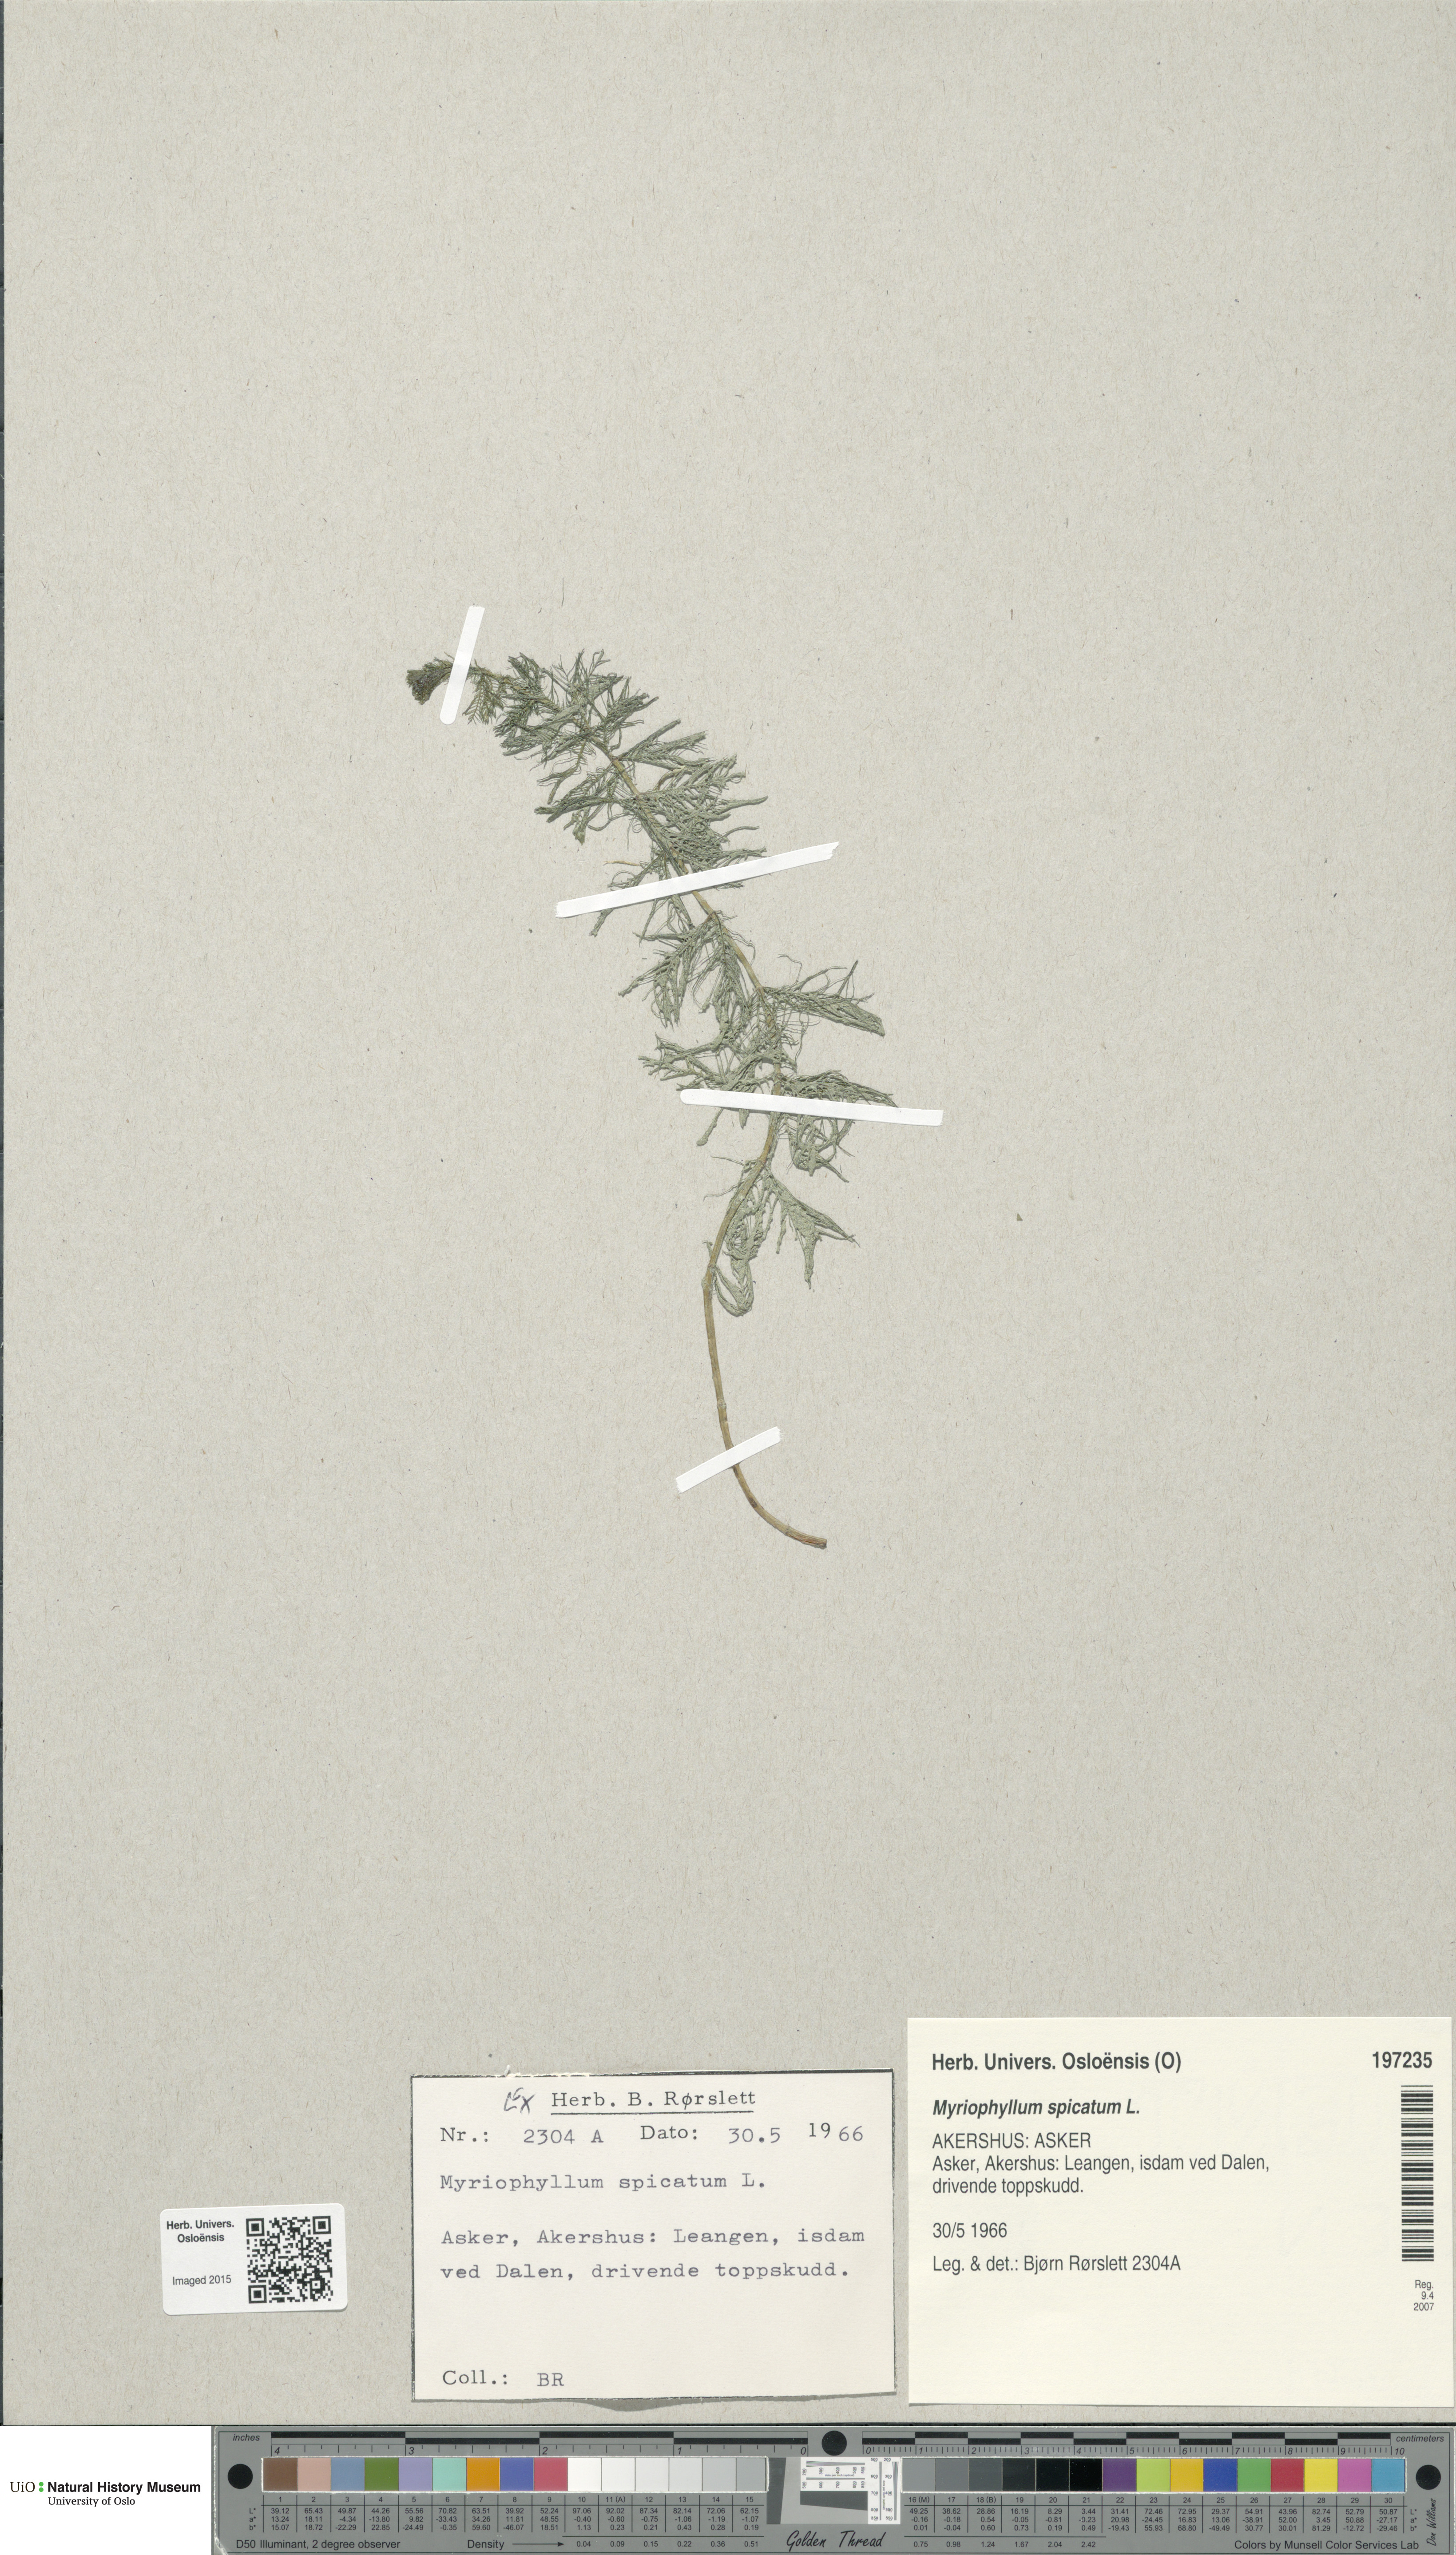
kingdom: Plantae
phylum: Tracheophyta
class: Magnoliopsida
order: Saxifragales
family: Haloragaceae
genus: Myriophyllum
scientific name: Myriophyllum spicatum
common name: Spiked water-milfoil
